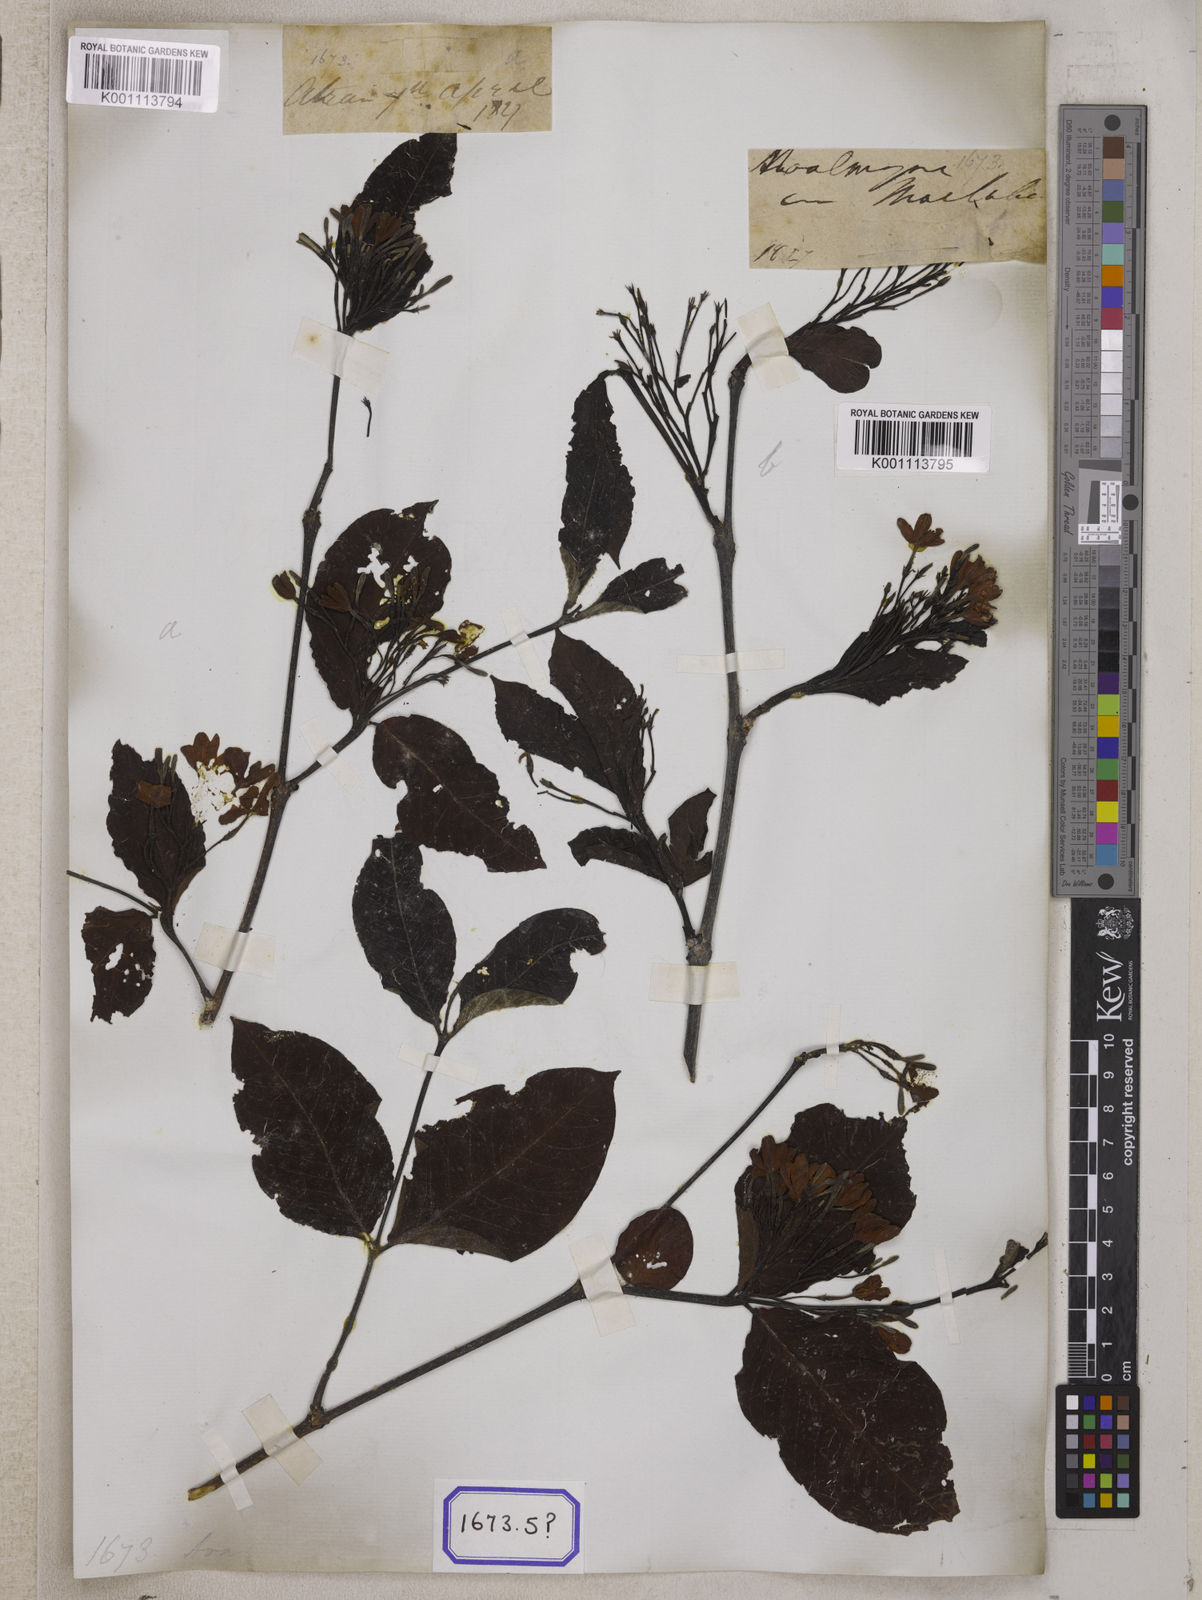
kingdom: Plantae
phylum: Tracheophyta
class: Magnoliopsida
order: Gentianales
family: Apocynaceae
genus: Holarrhena
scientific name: Holarrhena
